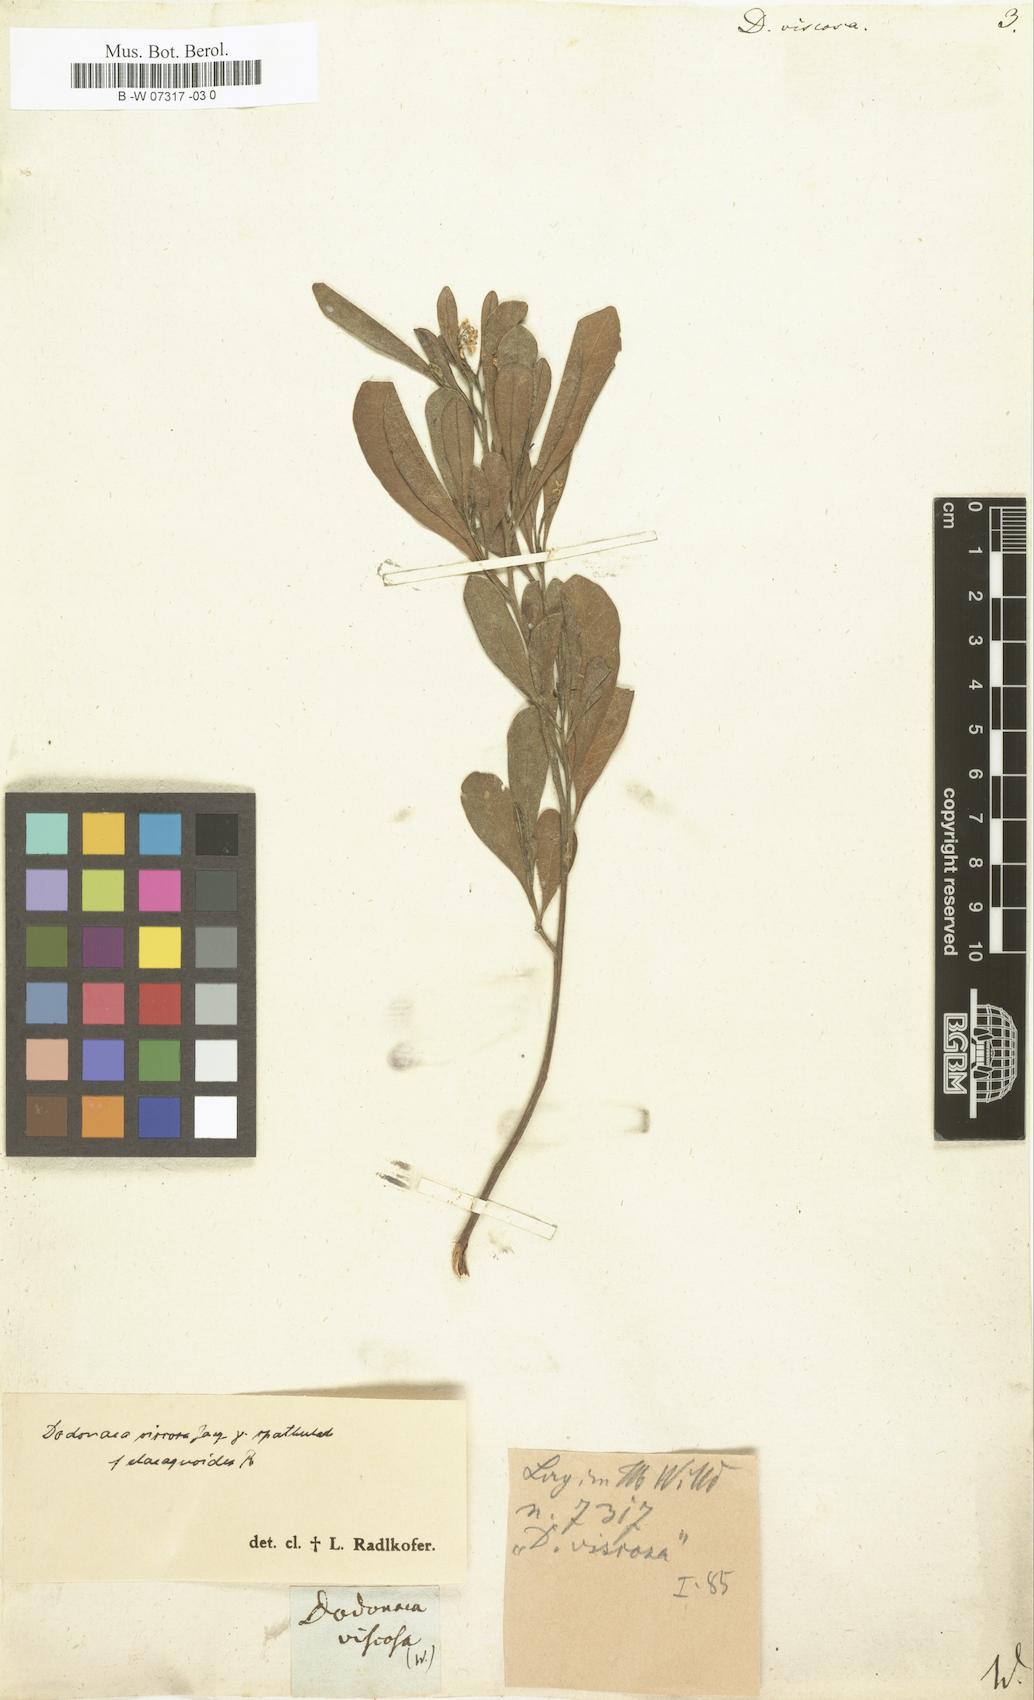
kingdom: Plantae
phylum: Tracheophyta
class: Magnoliopsida
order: Sapindales
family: Sapindaceae
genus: Dodonaea
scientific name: Dodonaea viscosa
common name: Hopbush
